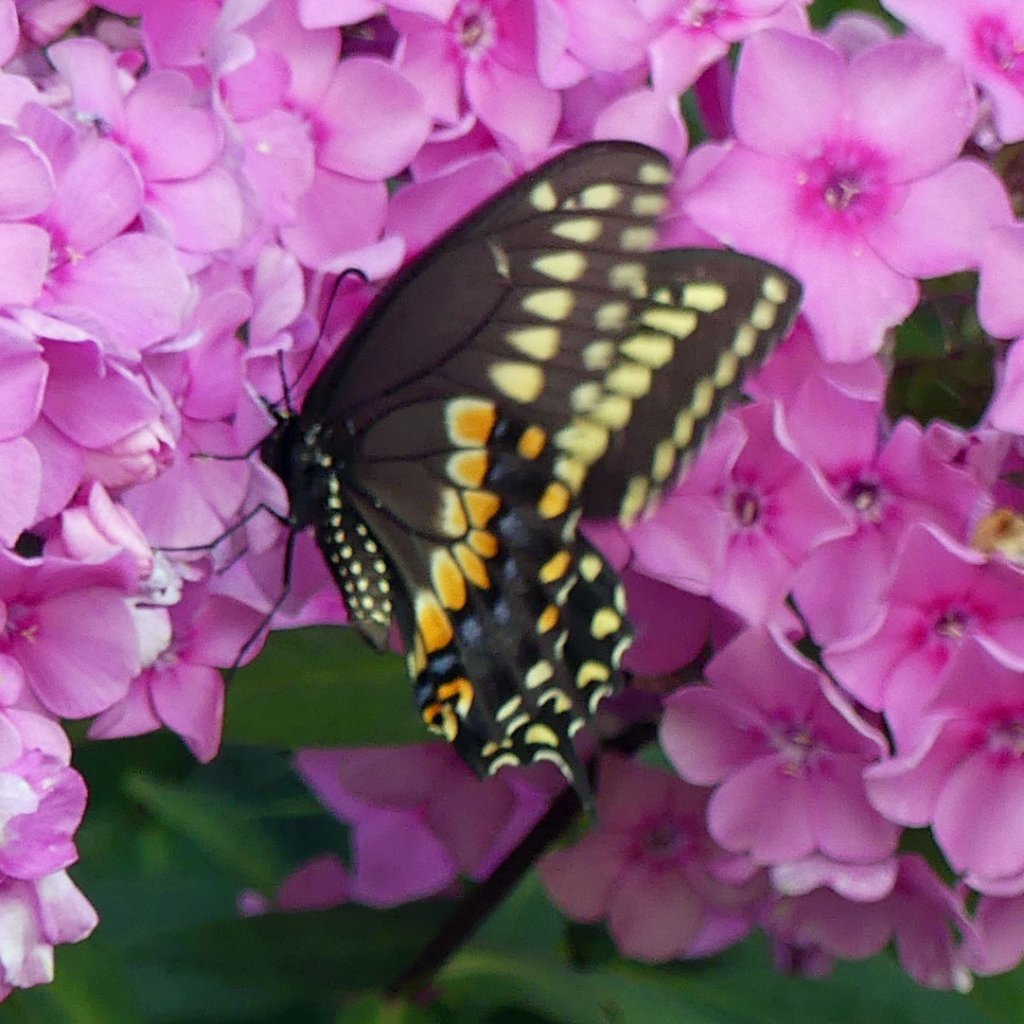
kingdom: Animalia
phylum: Arthropoda
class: Insecta
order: Lepidoptera
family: Papilionidae
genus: Papilio
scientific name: Papilio polyxenes
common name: Black Swallowtail
